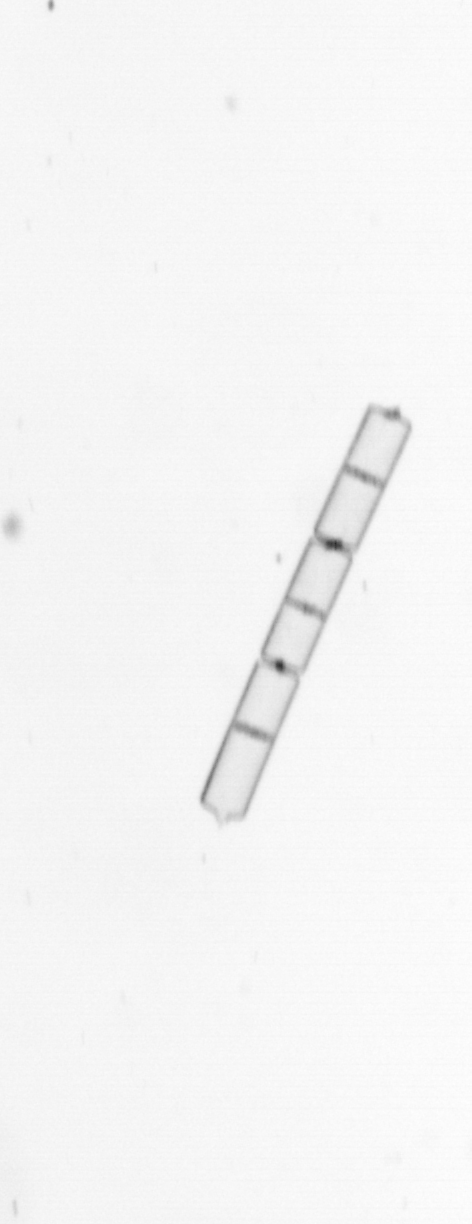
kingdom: Chromista
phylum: Ochrophyta
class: Bacillariophyceae
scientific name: Bacillariophyceae
